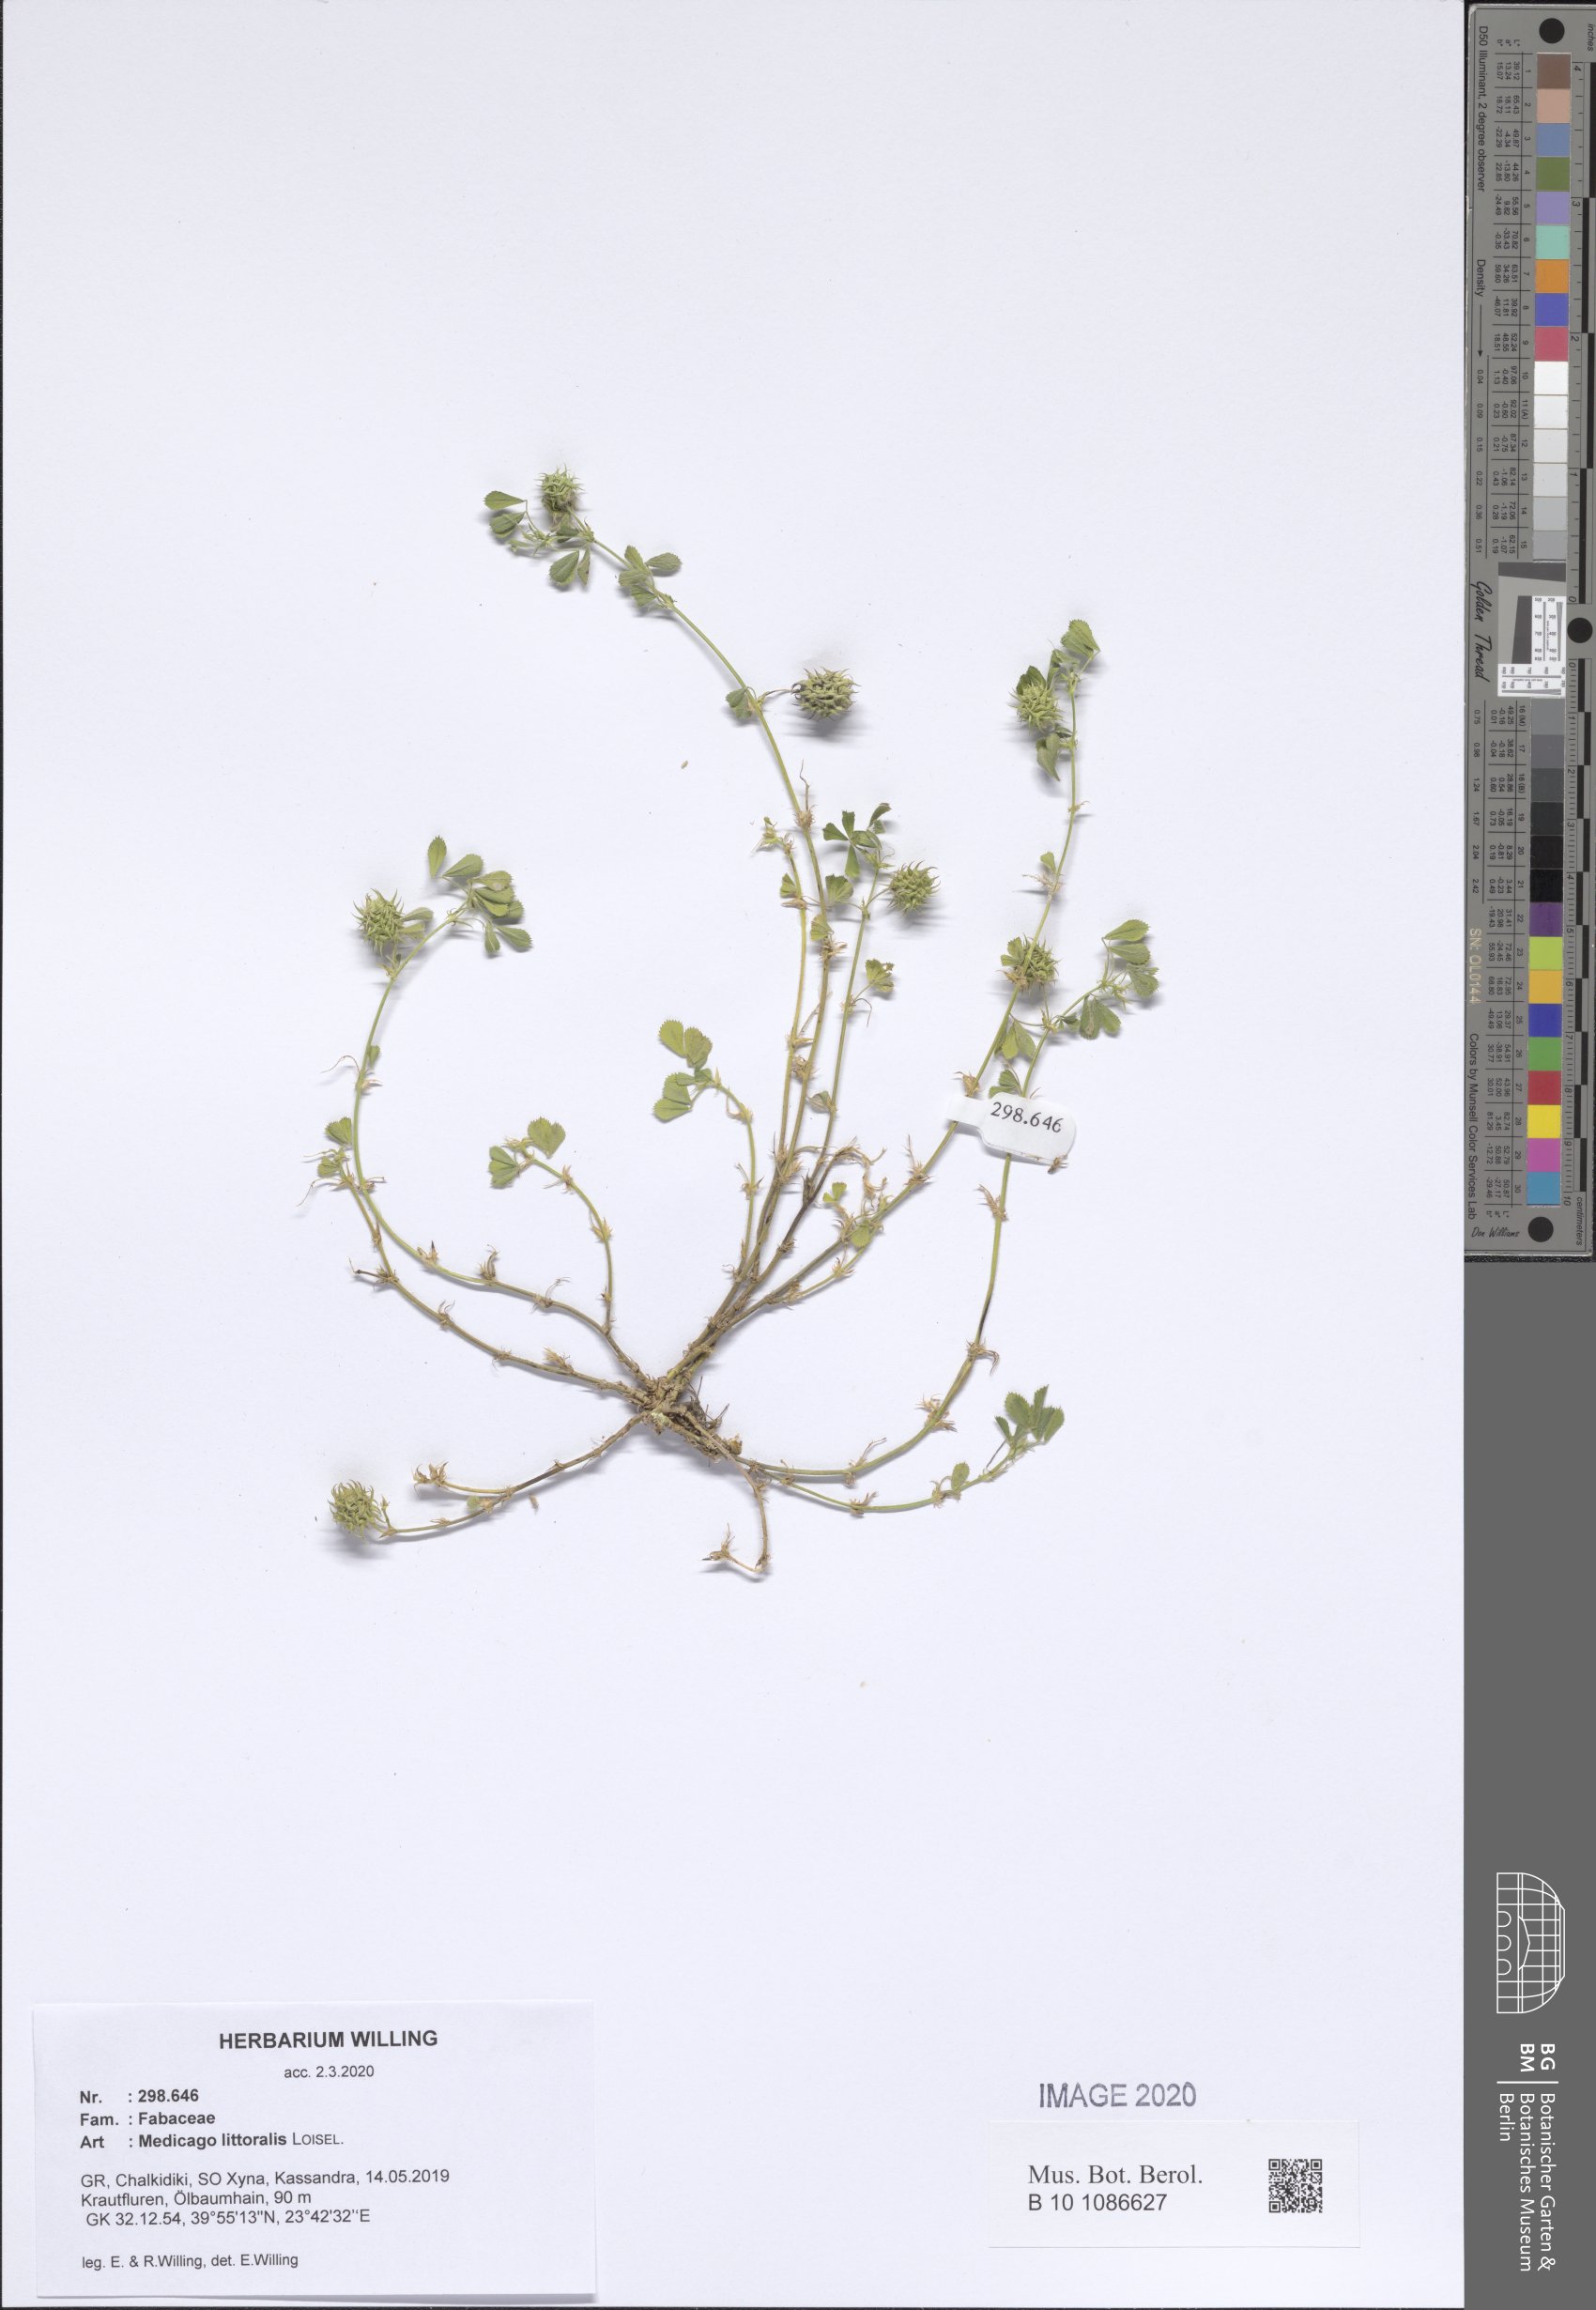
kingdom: Plantae
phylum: Tracheophyta
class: Magnoliopsida
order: Fabales
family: Fabaceae
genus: Medicago
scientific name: Medicago littoralis
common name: Shore medick
